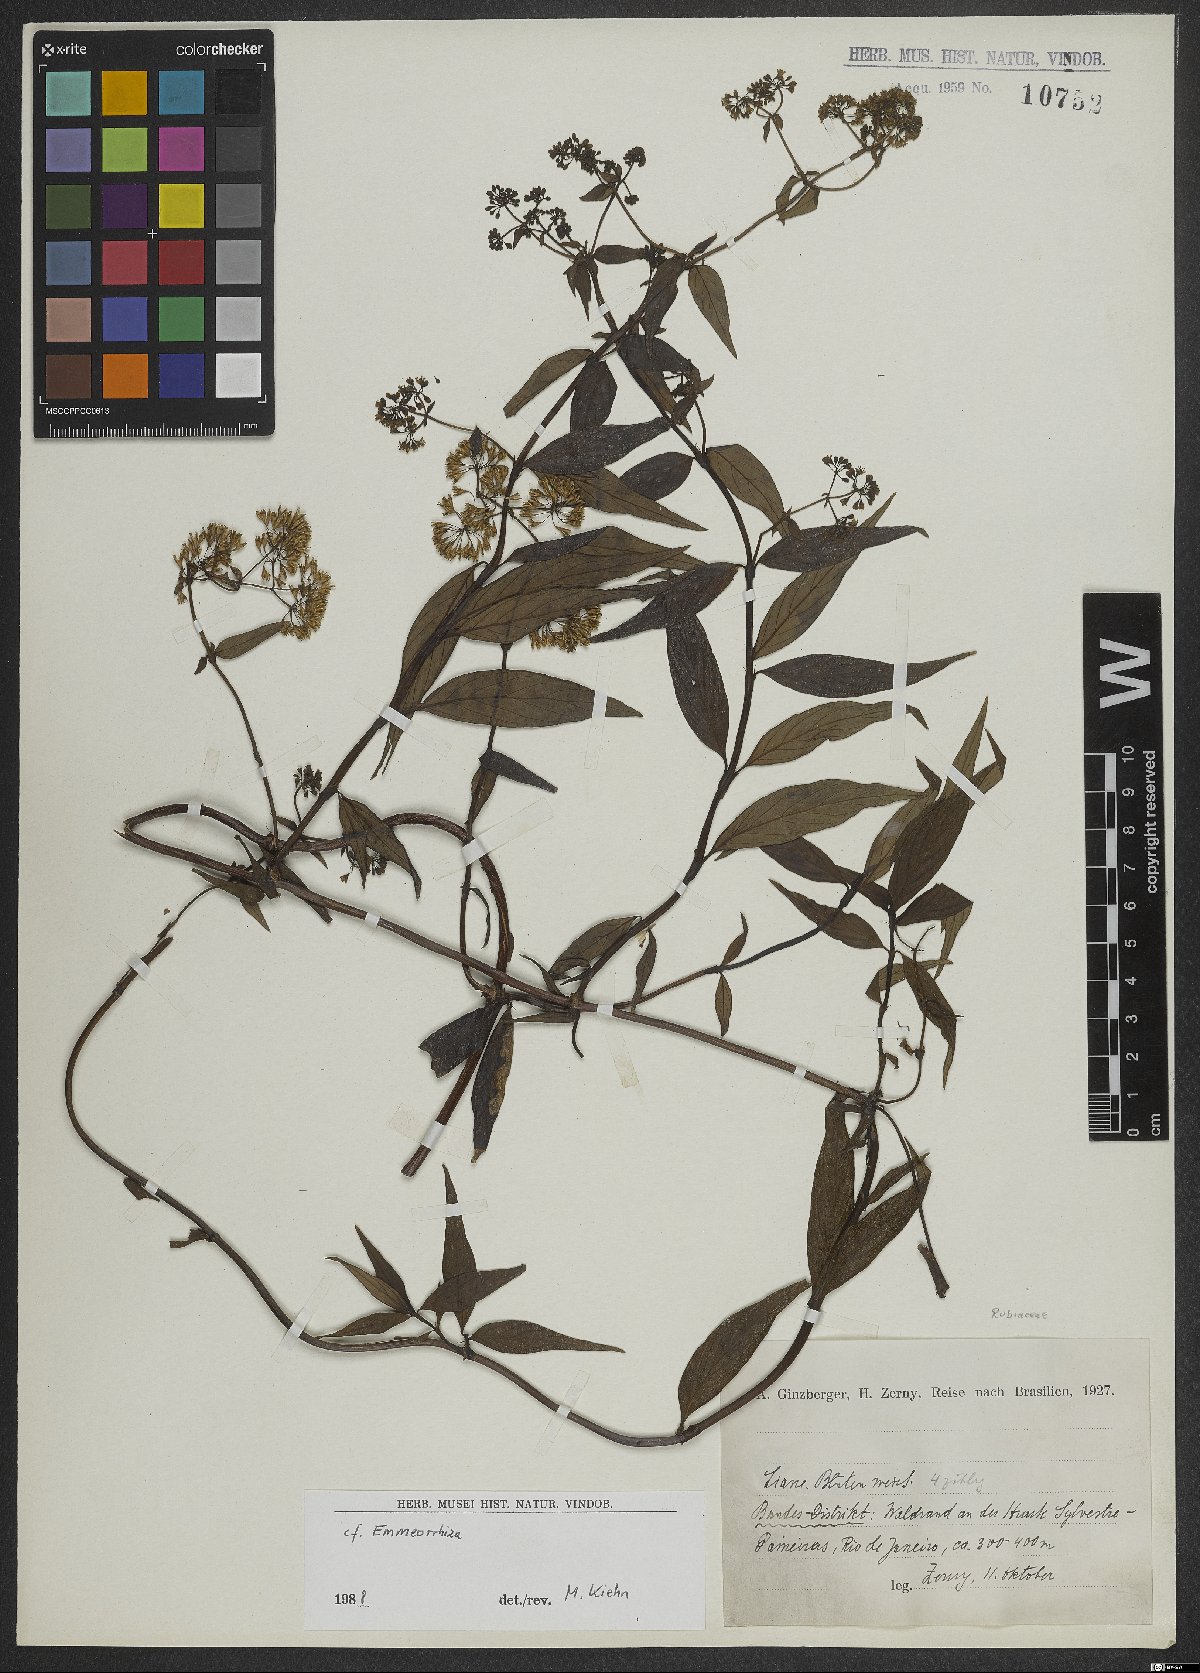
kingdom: Plantae
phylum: Tracheophyta
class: Magnoliopsida
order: Gentianales
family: Rubiaceae
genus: Emmeorhiza
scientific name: Emmeorhiza
